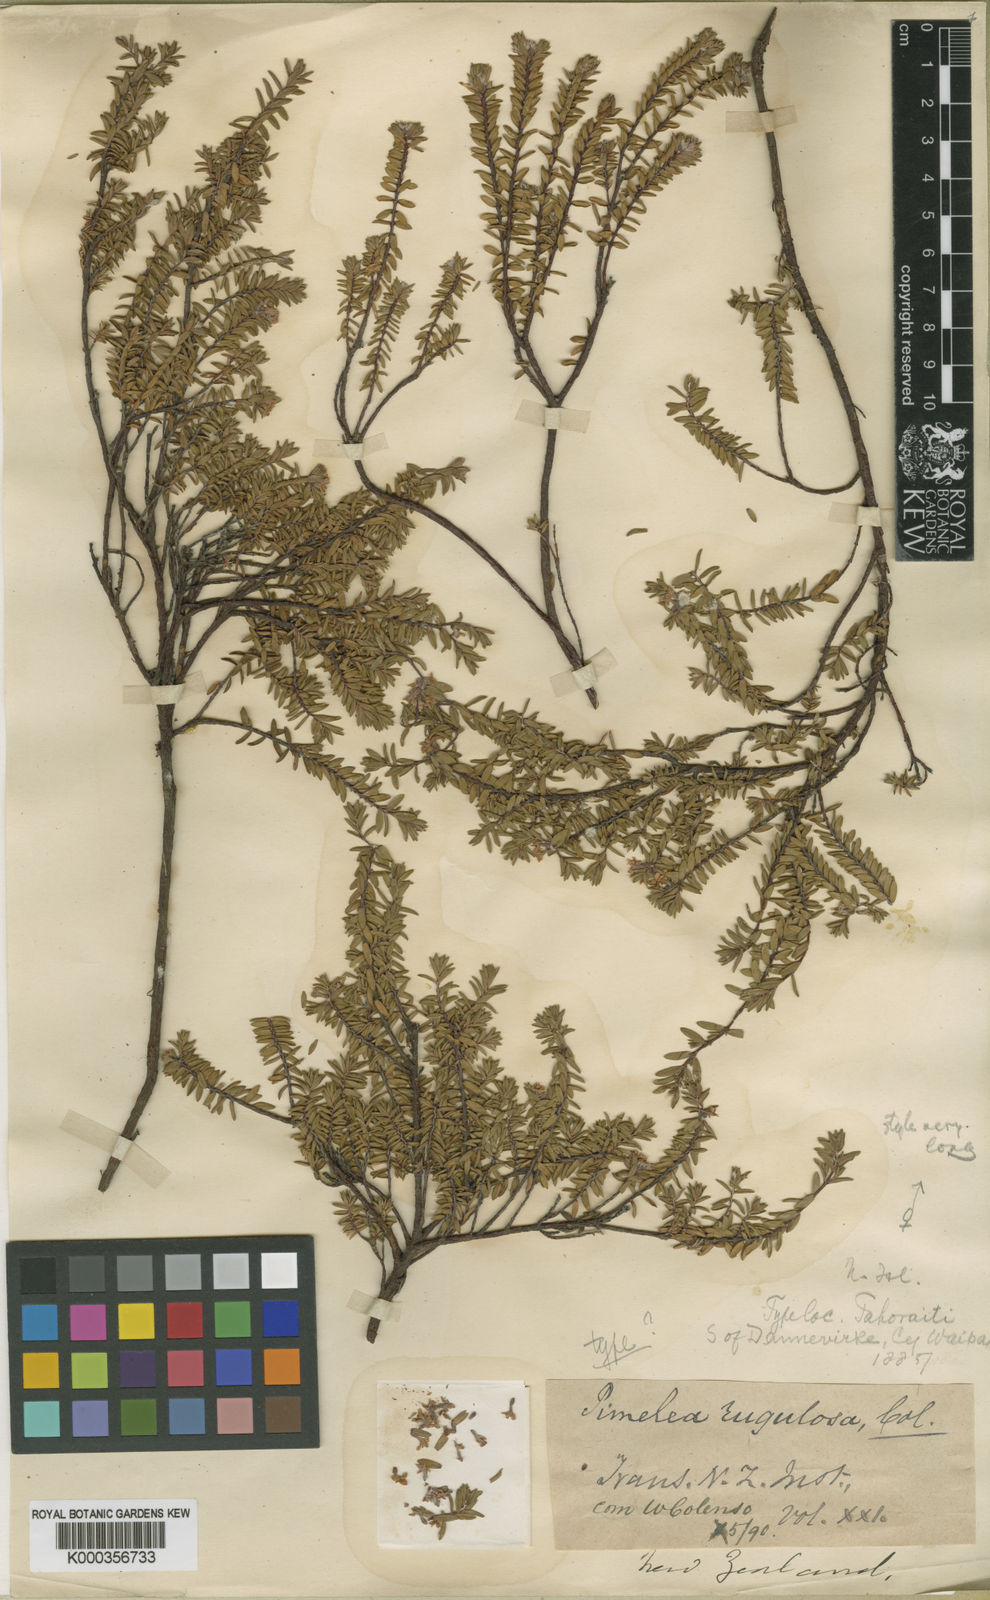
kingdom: Plantae
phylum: Tracheophyta
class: Magnoliopsida
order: Malvales
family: Thymelaeaceae
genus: Pimelea
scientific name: Pimelea
